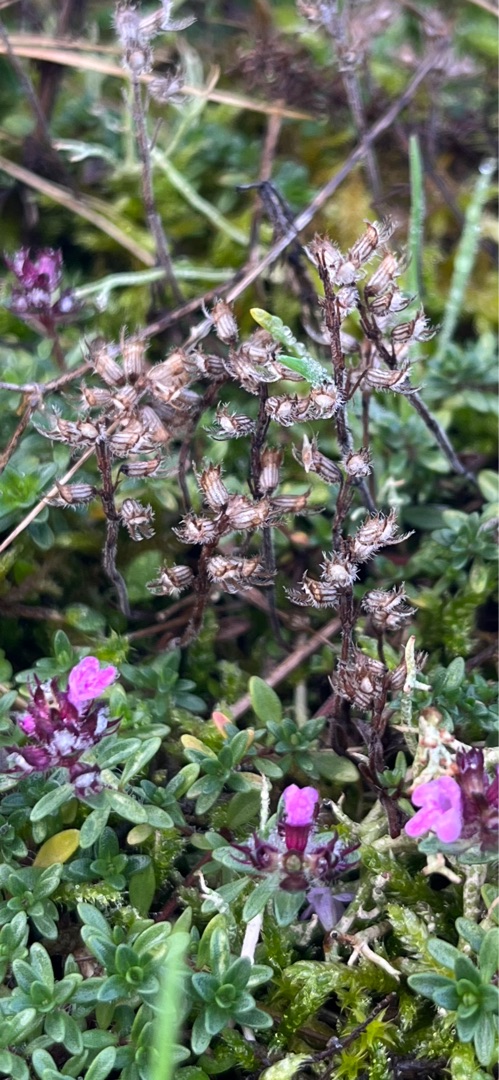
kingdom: Plantae
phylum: Tracheophyta
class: Magnoliopsida
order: Lamiales
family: Lamiaceae
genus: Thymus
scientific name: Thymus pulegioides
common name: Bredbladet timian
